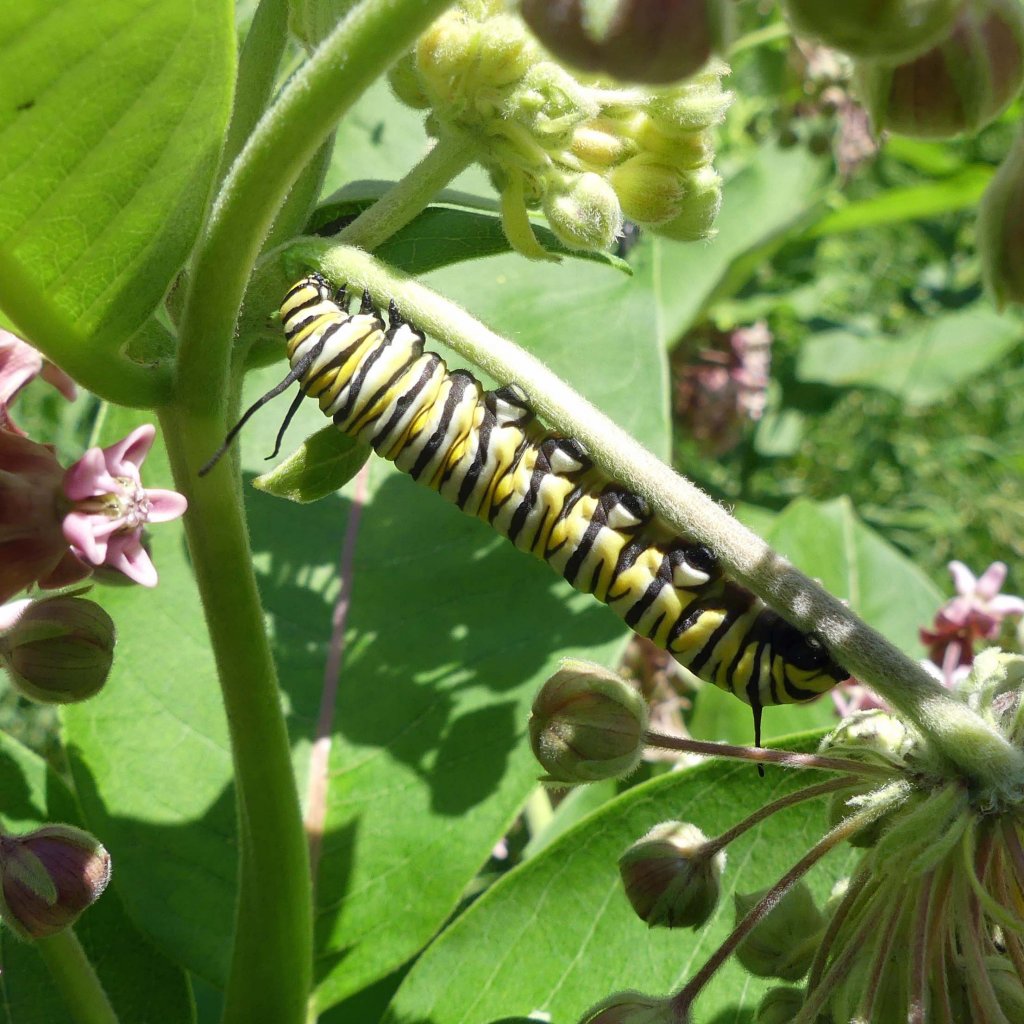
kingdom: Animalia
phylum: Arthropoda
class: Insecta
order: Lepidoptera
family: Nymphalidae
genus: Danaus
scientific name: Danaus plexippus
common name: Monarch
